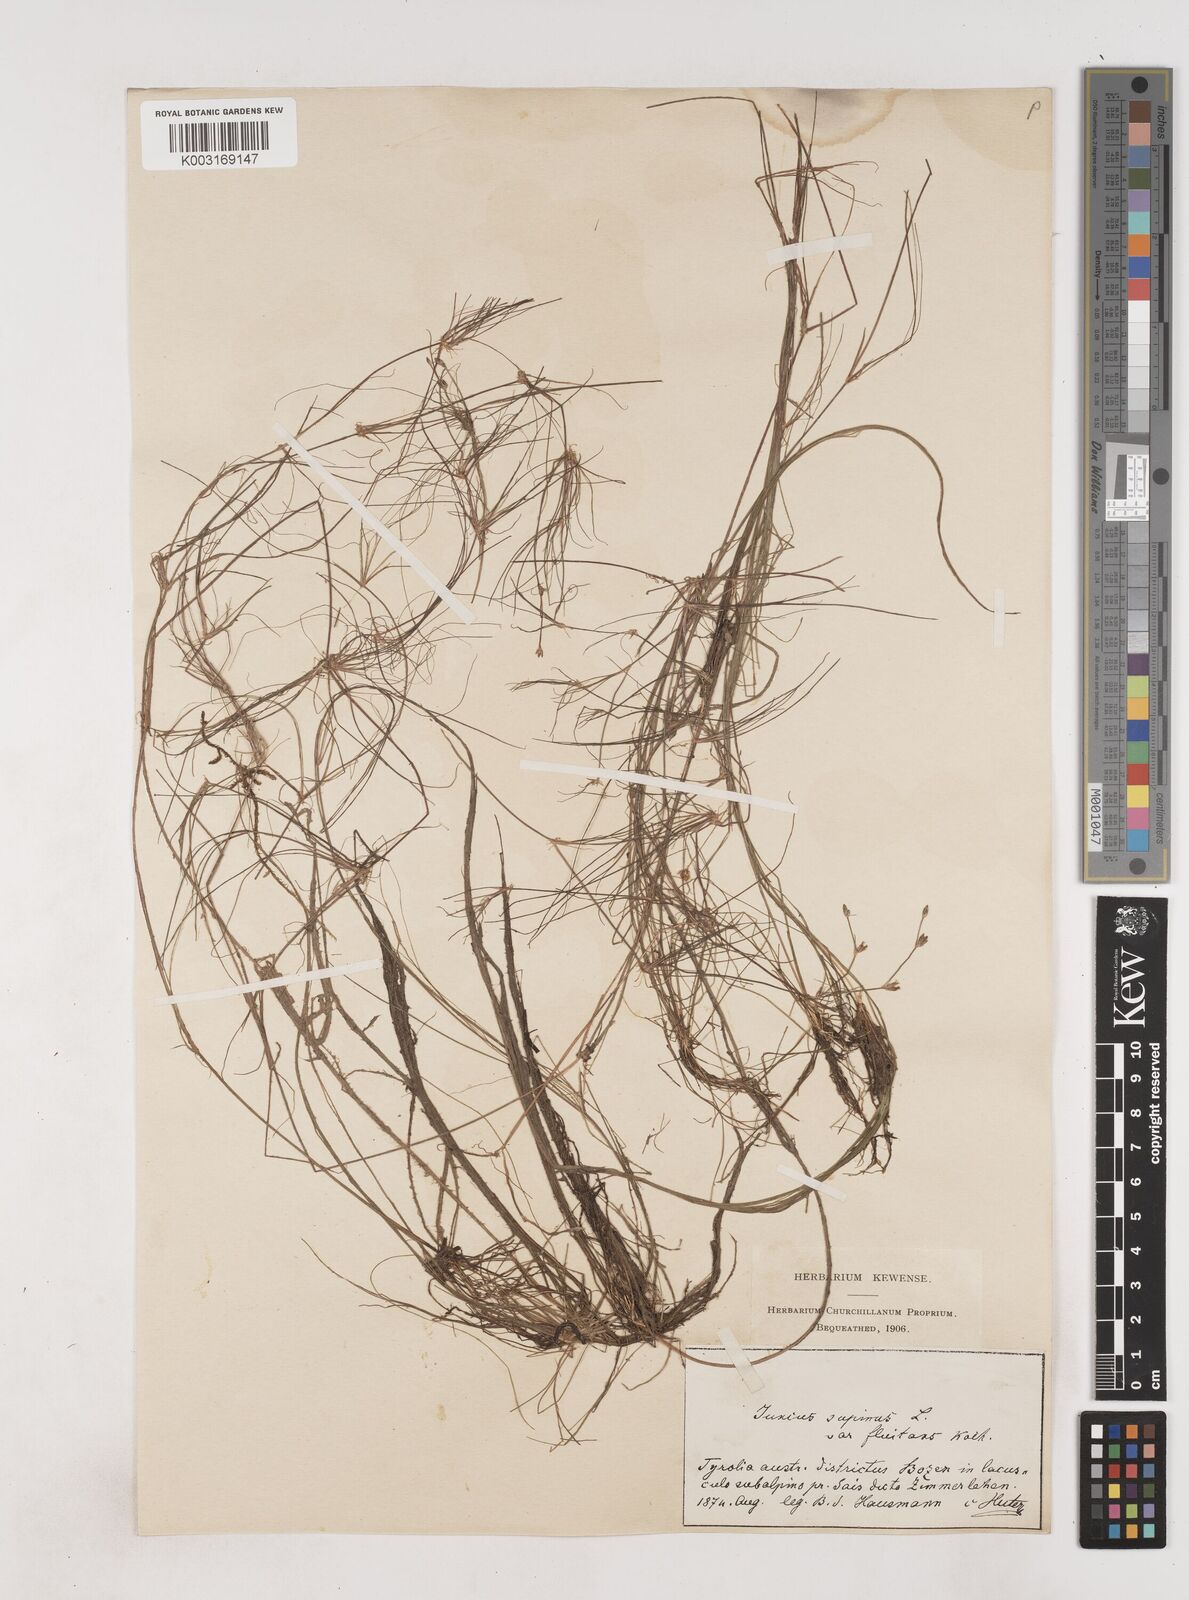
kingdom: Plantae
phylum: Tracheophyta
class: Liliopsida
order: Poales
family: Juncaceae
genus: Juncus
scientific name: Juncus bulbosus
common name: Bulbous rush
